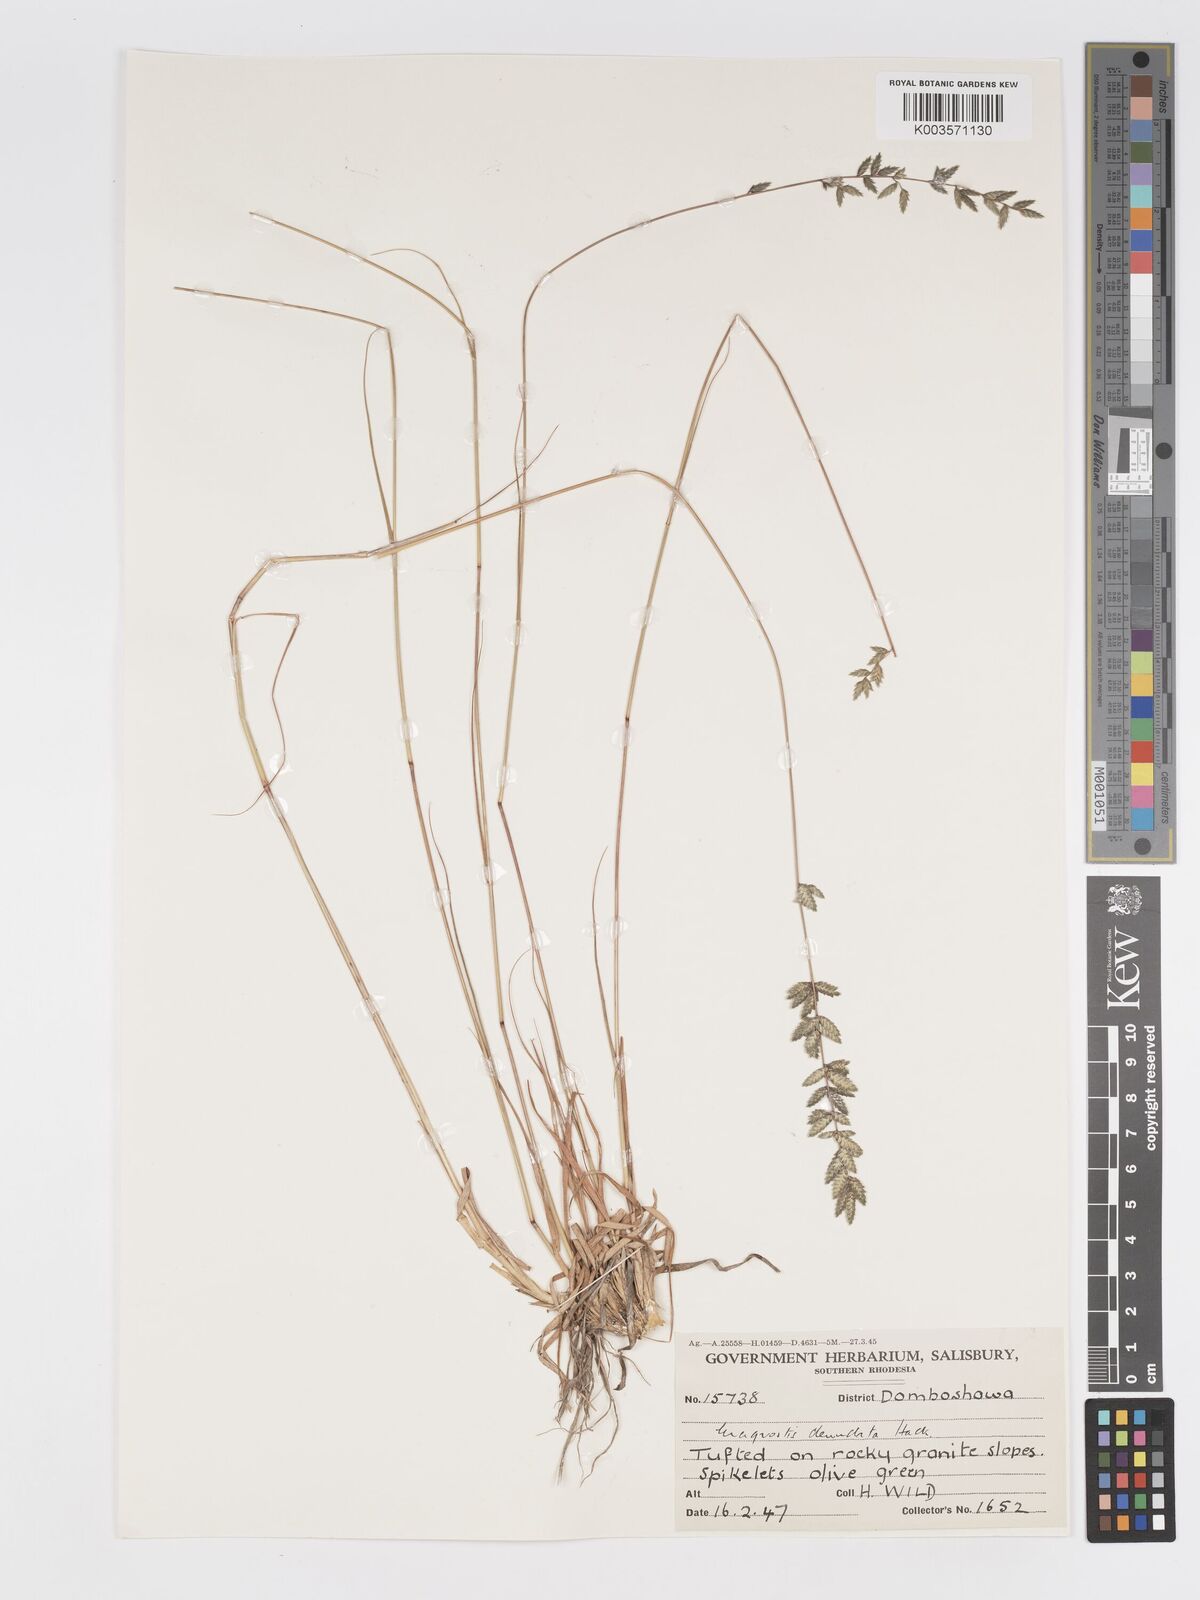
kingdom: Plantae
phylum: Tracheophyta
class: Liliopsida
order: Poales
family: Poaceae
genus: Eragrostis
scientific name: Eragrostis nindensis
